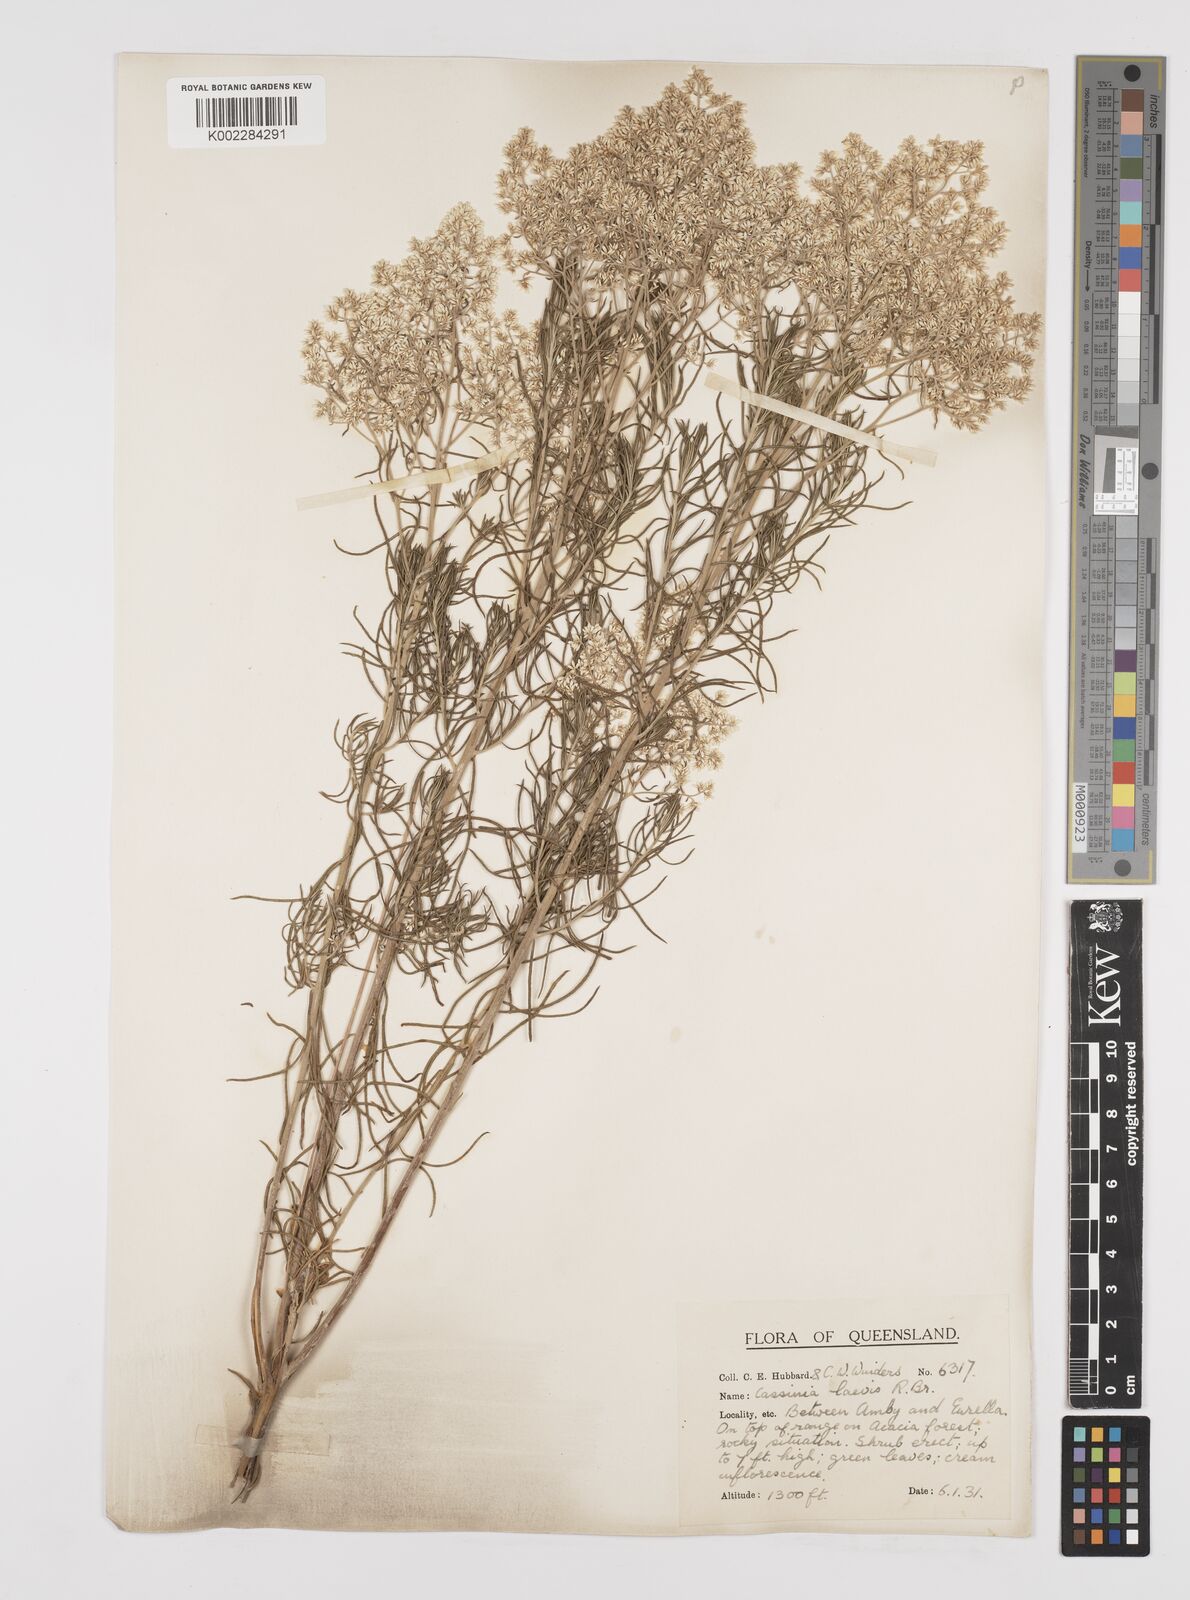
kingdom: Plantae
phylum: Tracheophyta
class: Magnoliopsida
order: Asterales
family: Asteraceae
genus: Cassinia
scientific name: Cassinia laevis
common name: Coughbush
